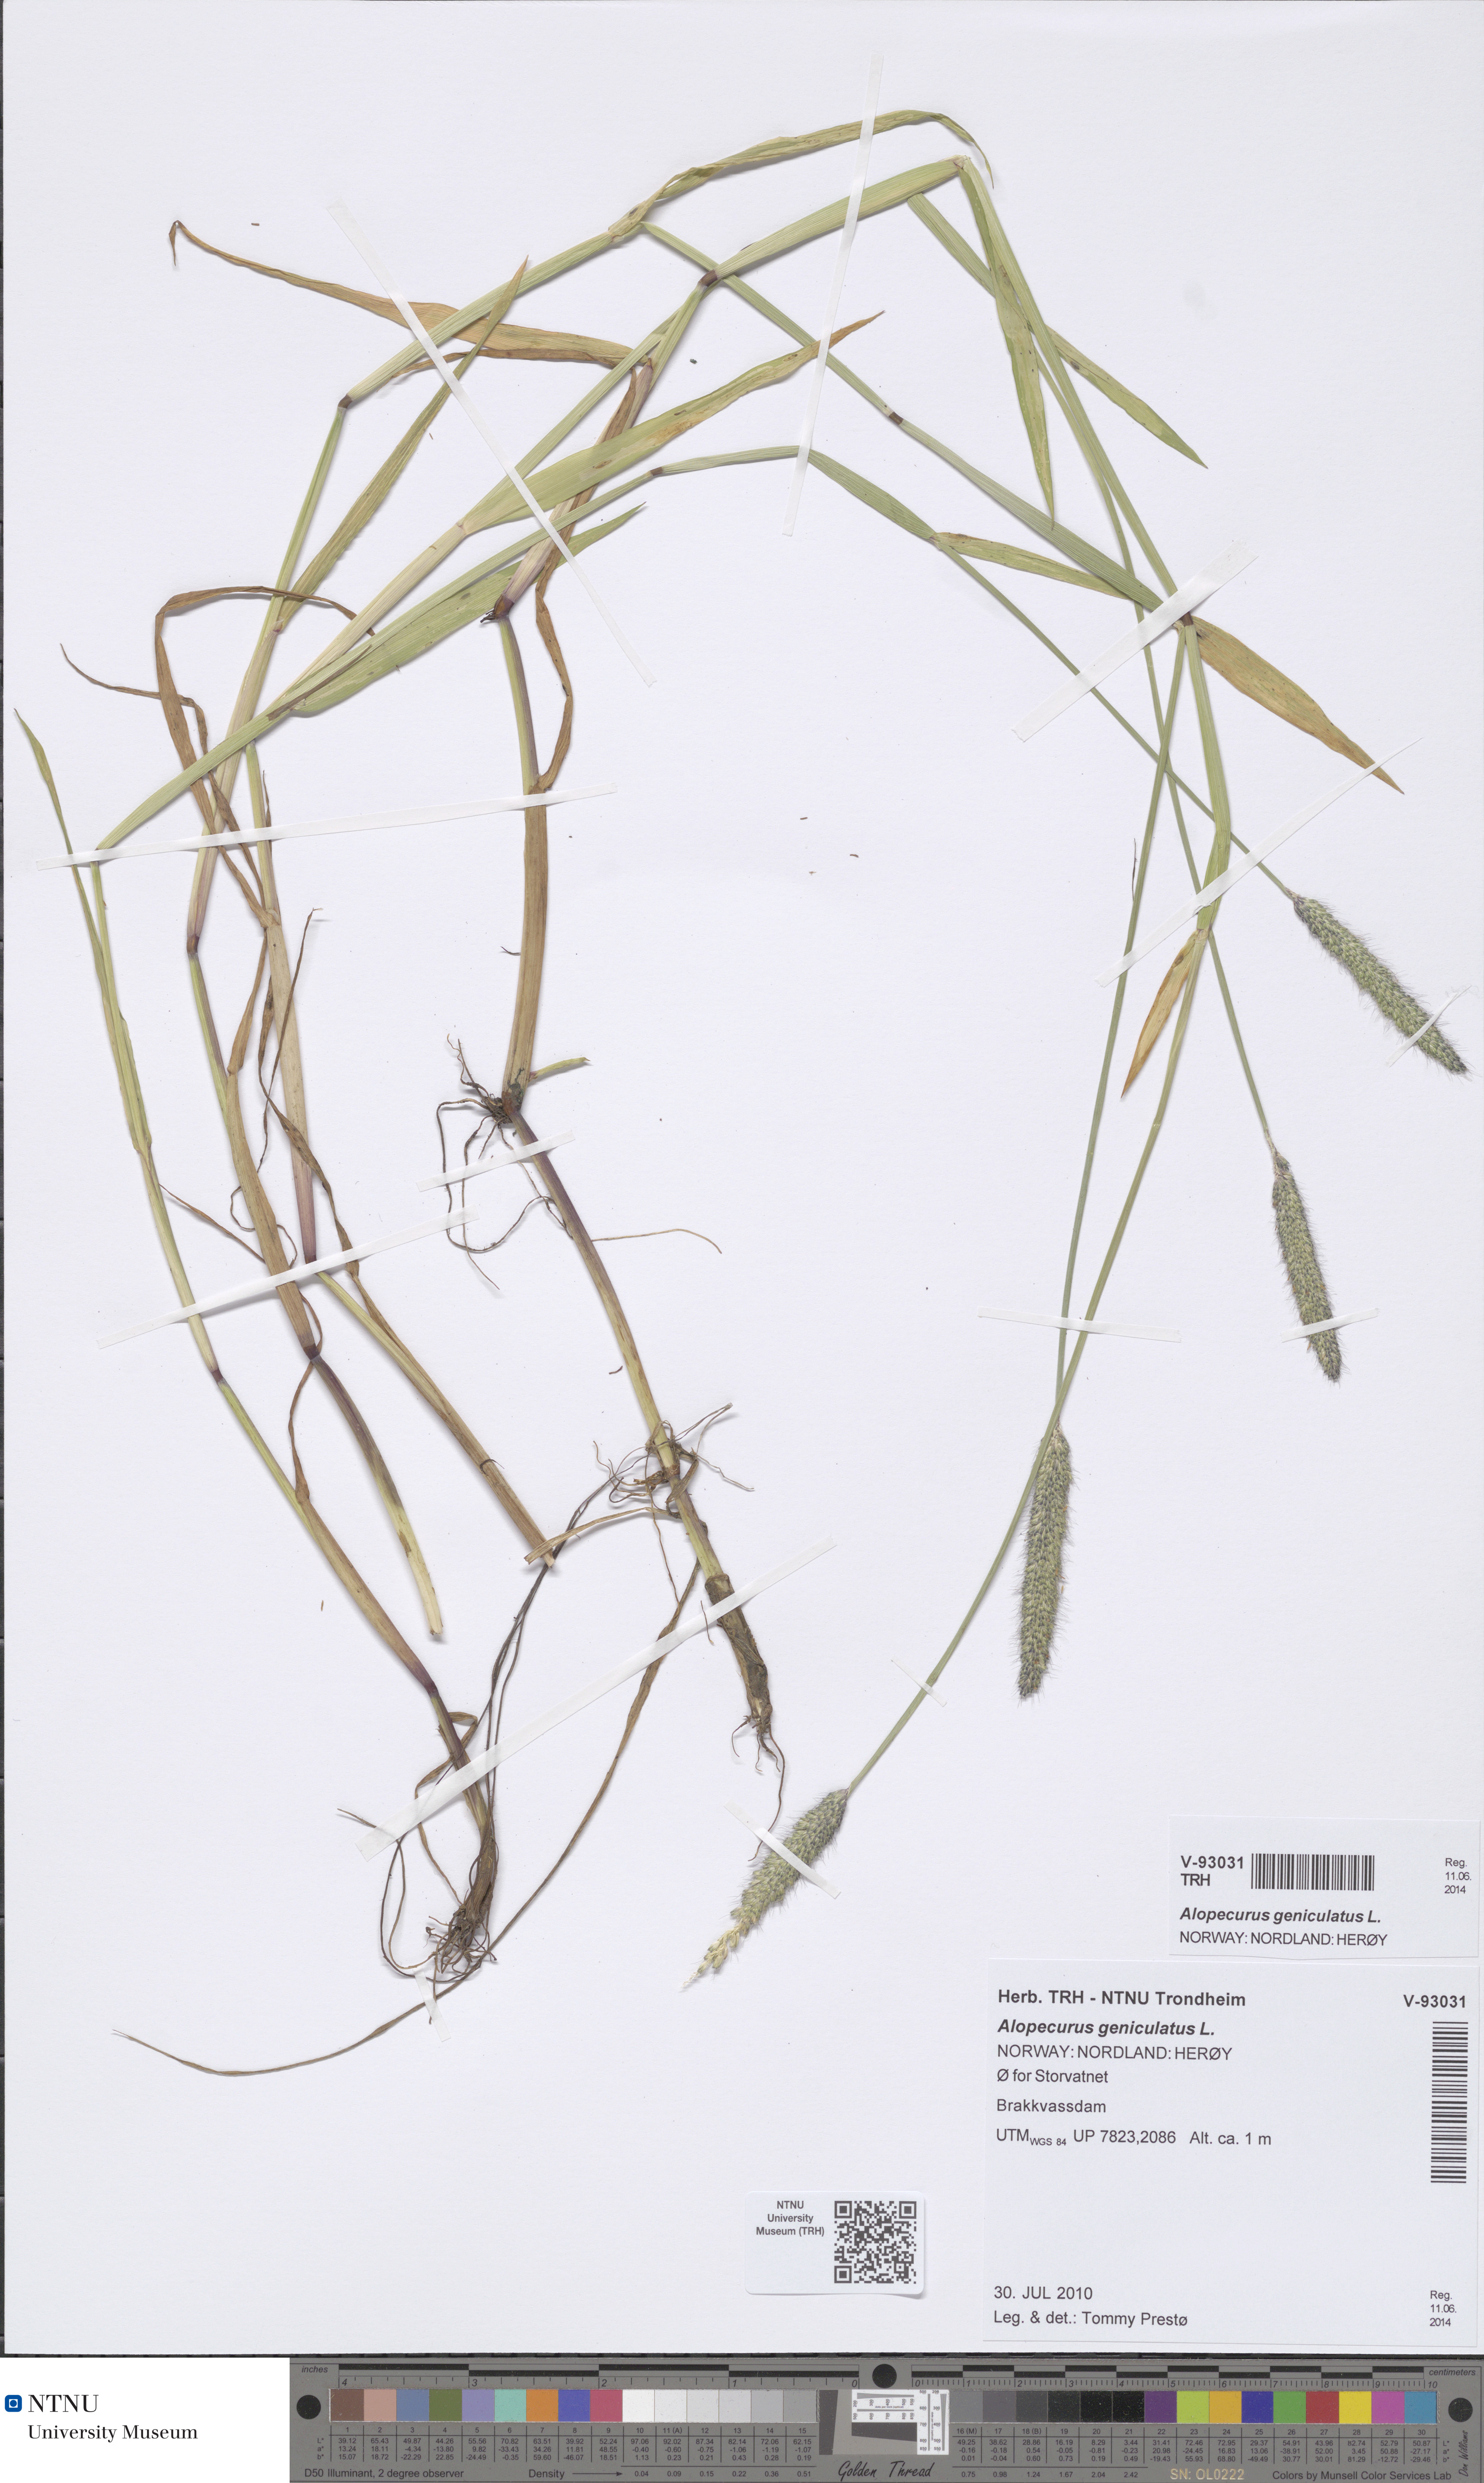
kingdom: Plantae
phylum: Tracheophyta
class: Liliopsida
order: Poales
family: Poaceae
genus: Alopecurus
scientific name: Alopecurus geniculatus
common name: Water foxtail
